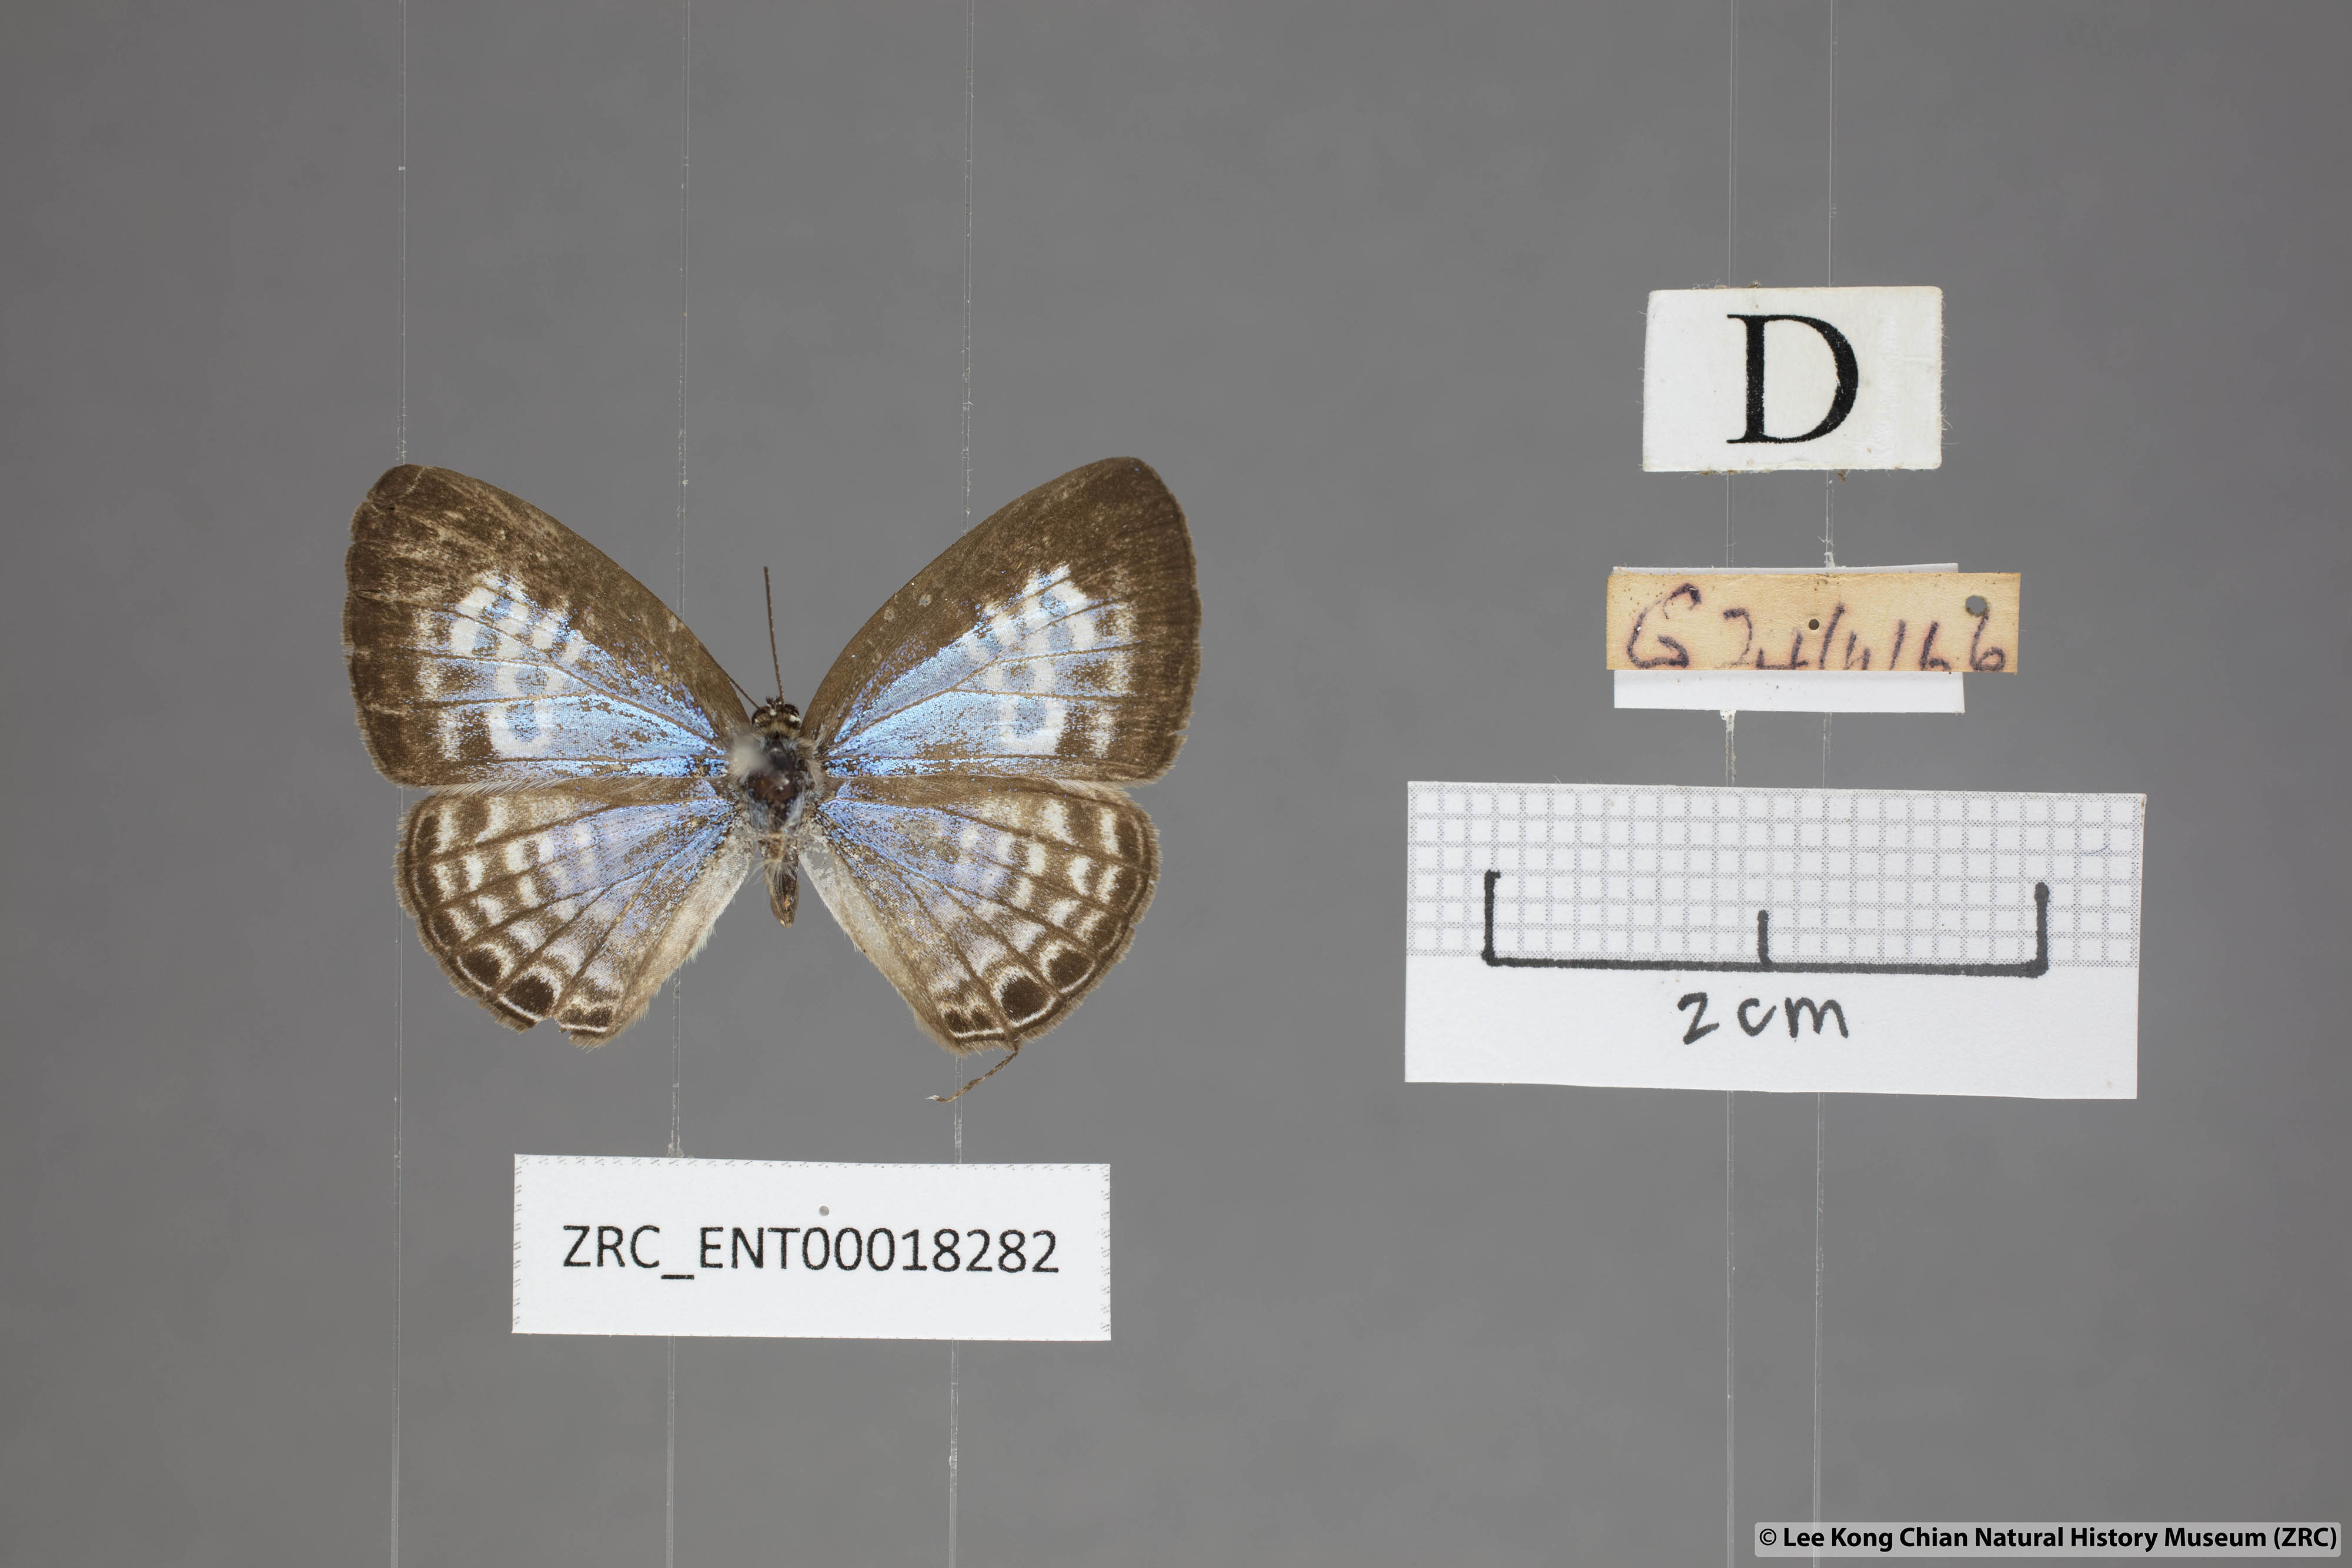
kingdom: Animalia
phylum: Arthropoda
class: Insecta
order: Lepidoptera
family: Lycaenidae
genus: Nacaduba
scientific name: Nacaduba angusta
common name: White four-line blue
